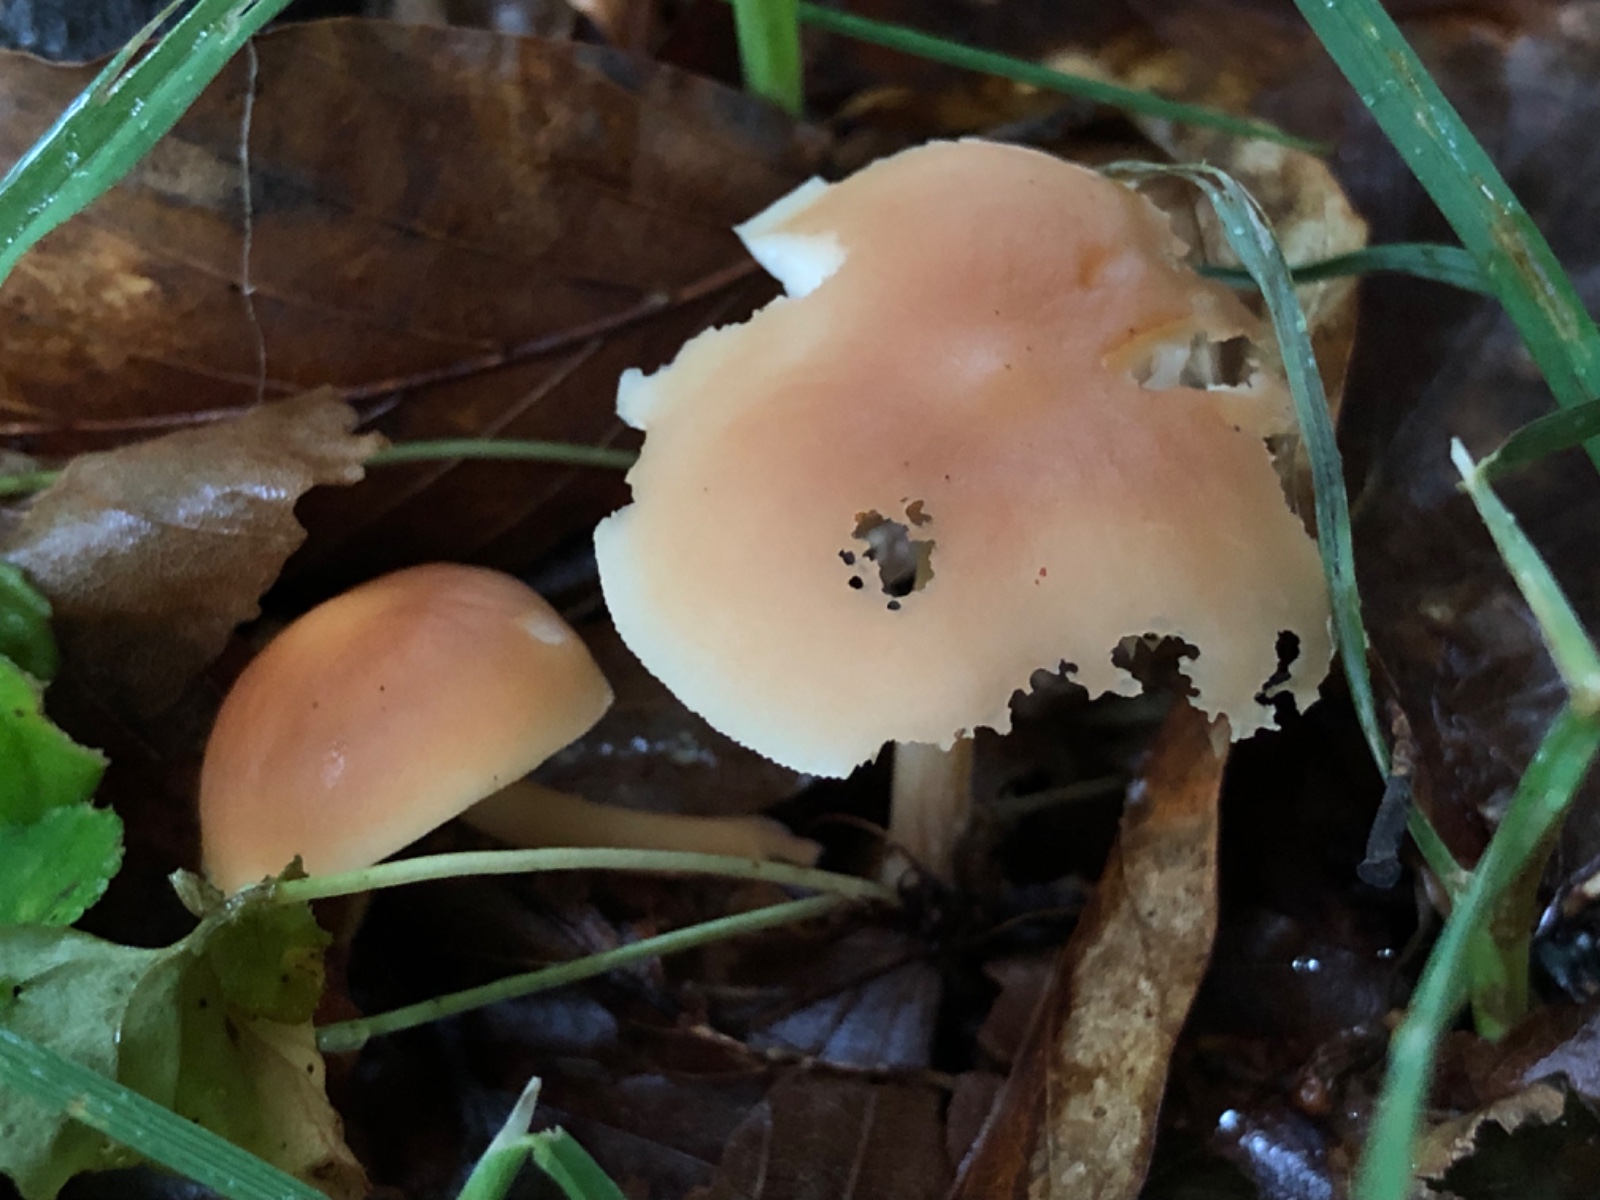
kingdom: Fungi
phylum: Basidiomycota
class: Agaricomycetes
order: Agaricales
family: Omphalotaceae
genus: Gymnopus
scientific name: Gymnopus
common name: fladhat
